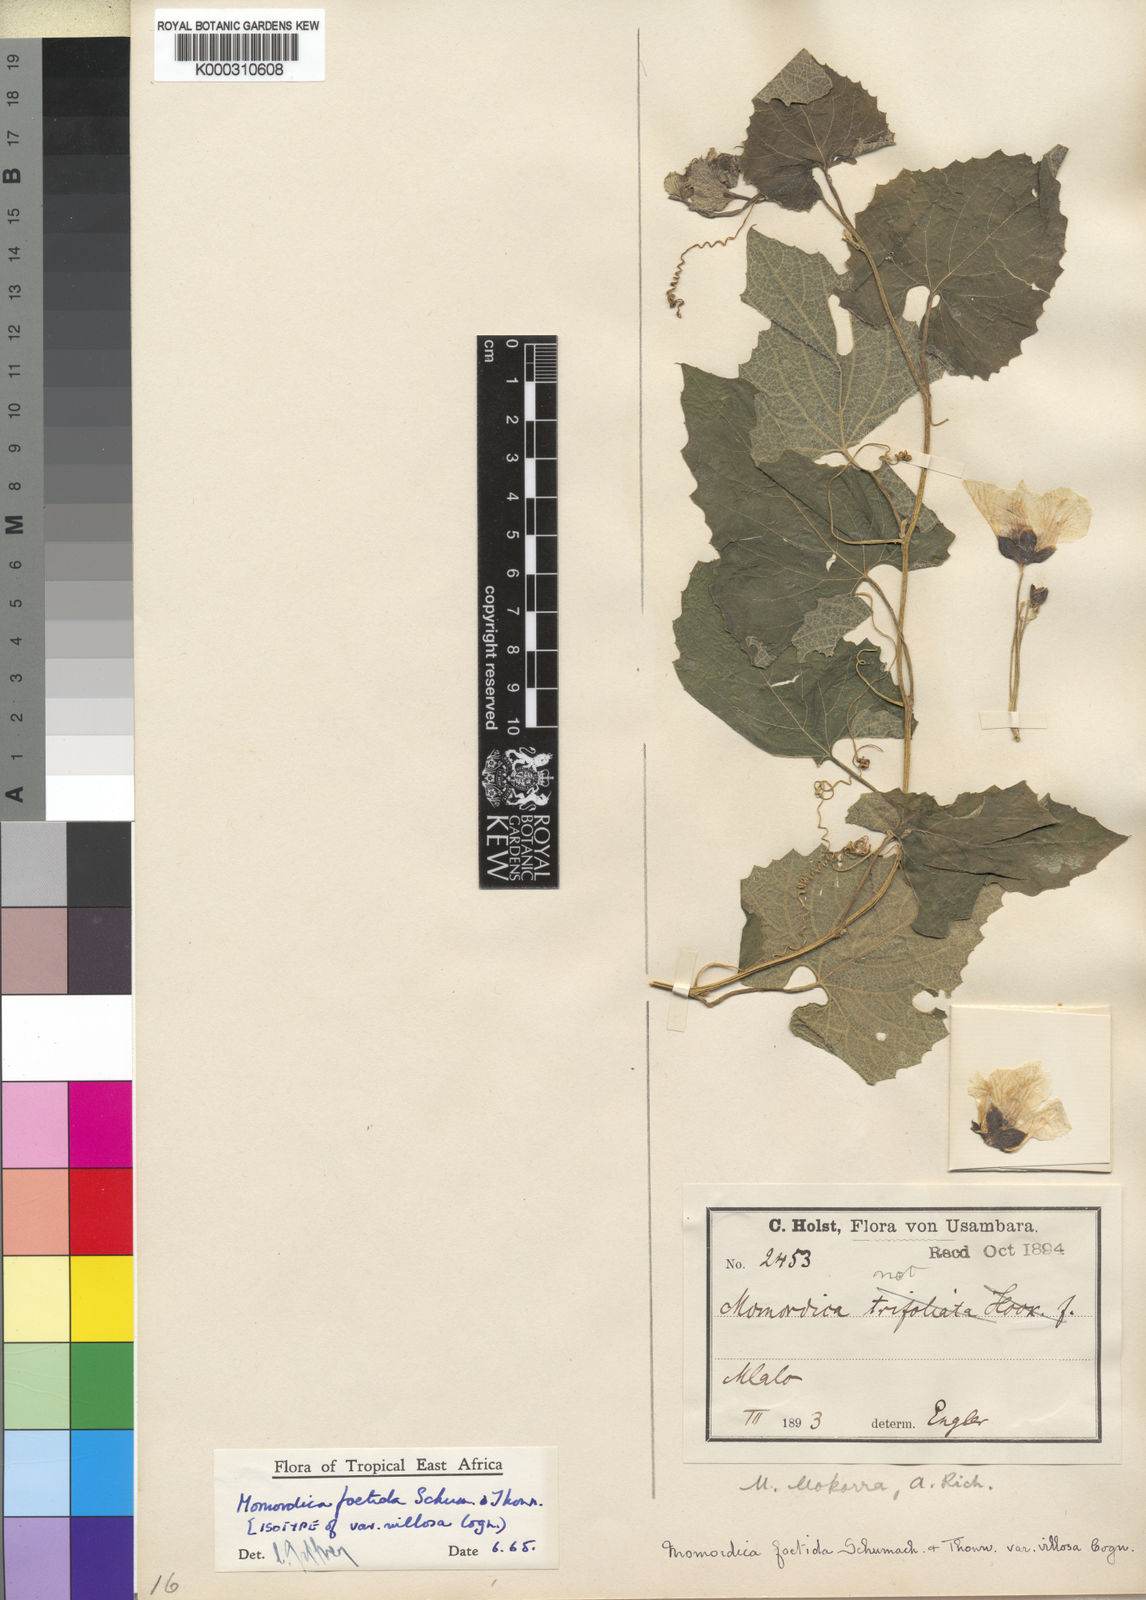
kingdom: Plantae
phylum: Tracheophyta
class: Magnoliopsida
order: Cucurbitales
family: Cucurbitaceae
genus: Momordica
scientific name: Momordica foetida
